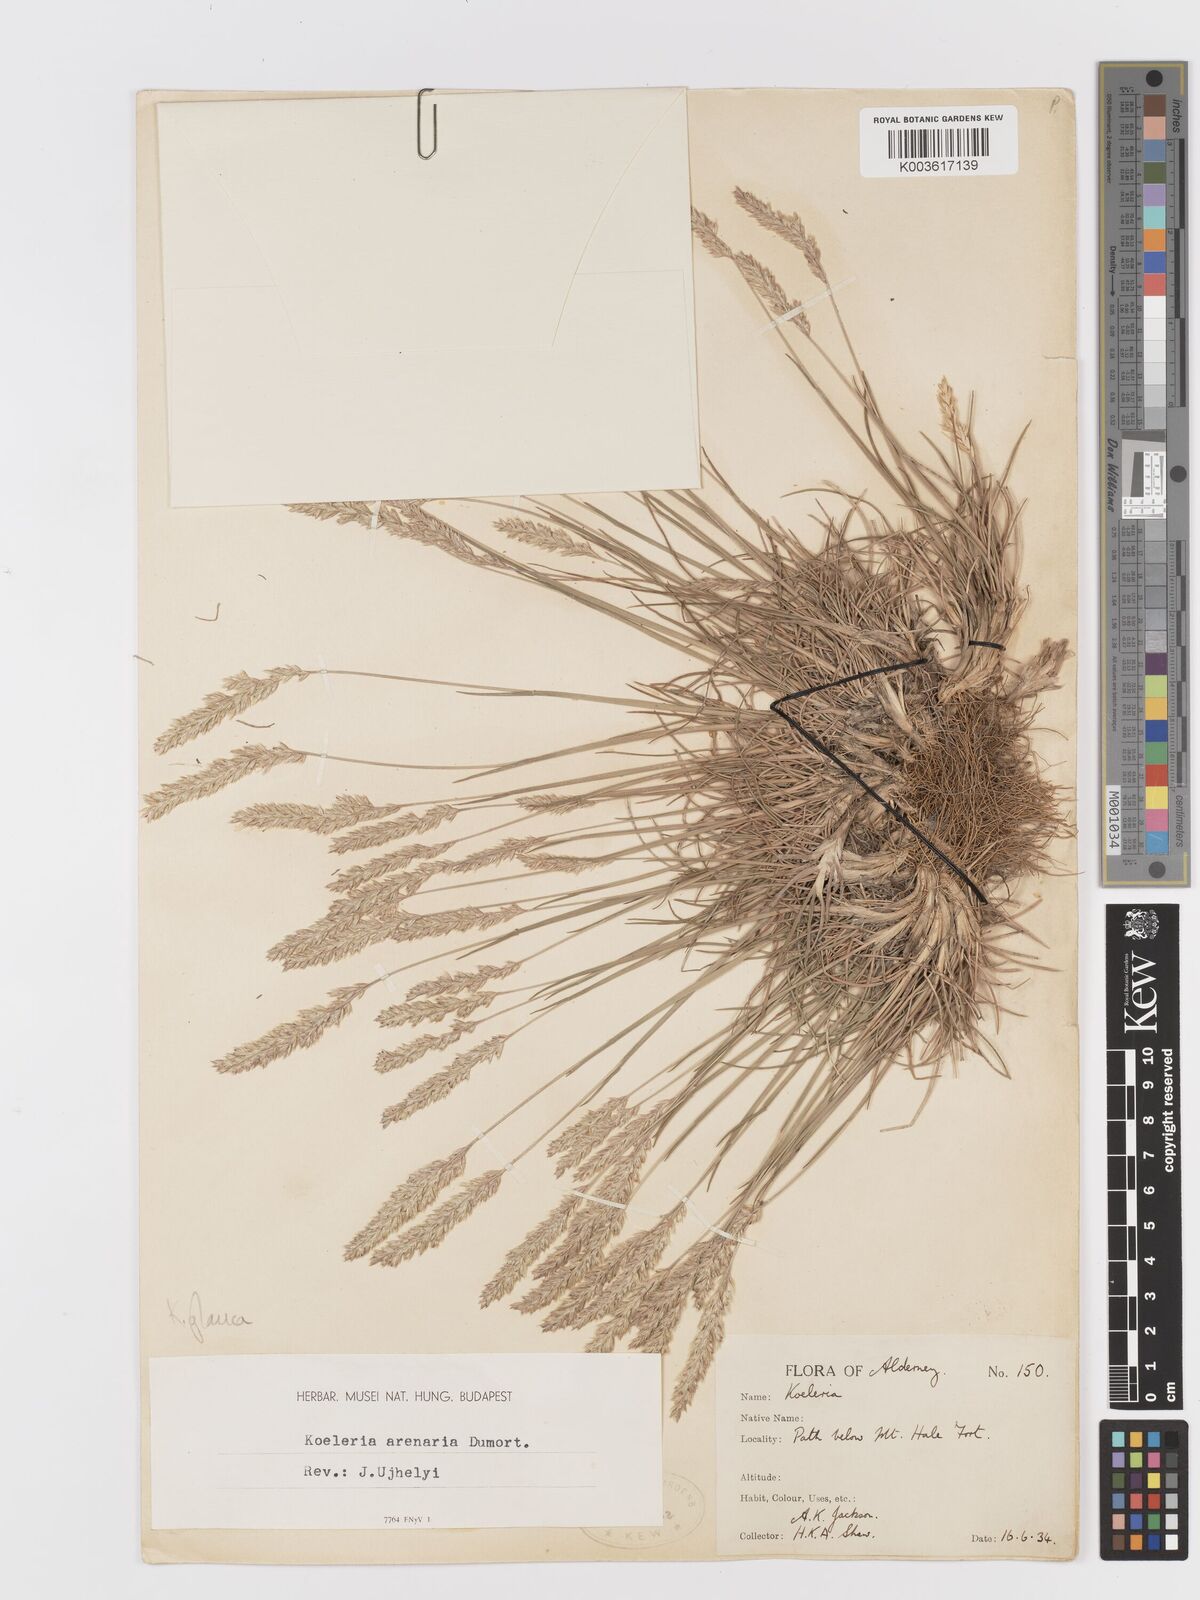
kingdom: Plantae
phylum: Tracheophyta
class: Liliopsida
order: Poales
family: Poaceae
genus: Koeleria
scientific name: Koeleria glauca
